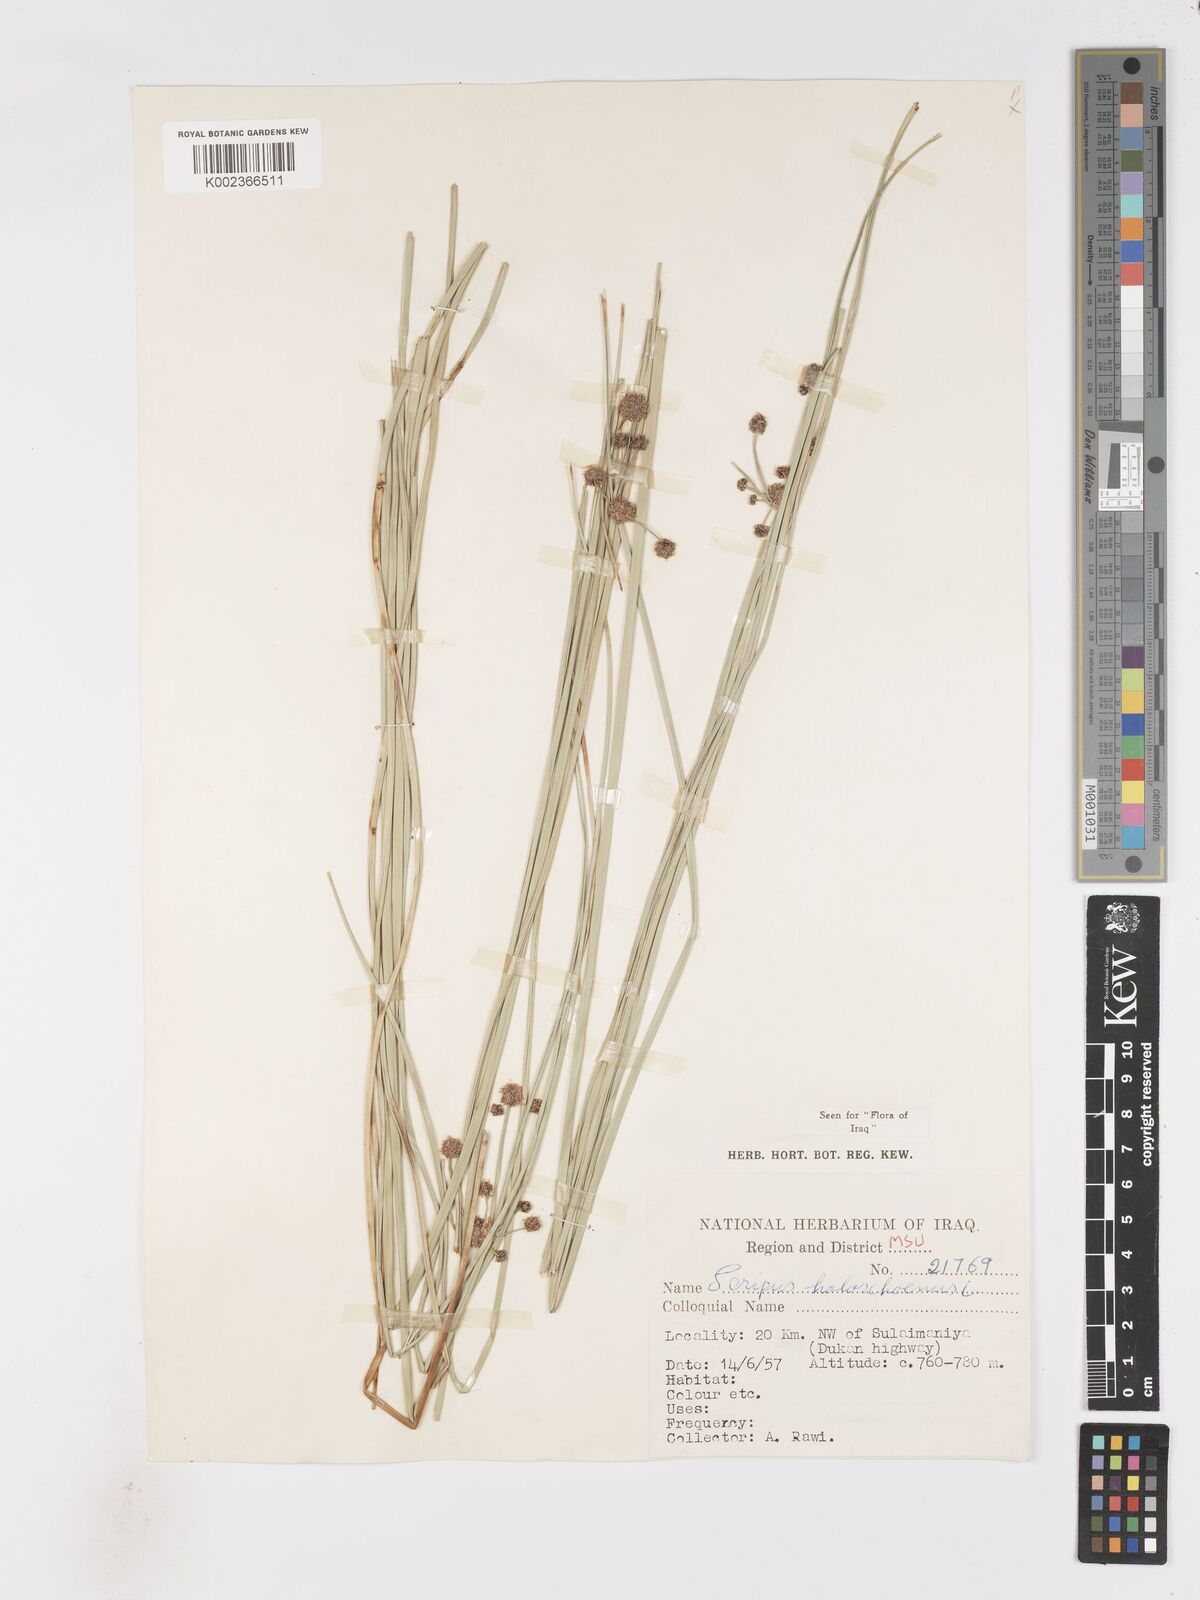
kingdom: Plantae
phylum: Tracheophyta
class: Liliopsida
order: Poales
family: Cyperaceae
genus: Scirpoides
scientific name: Scirpoides holoschoenus
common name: Round-headed club-rush
